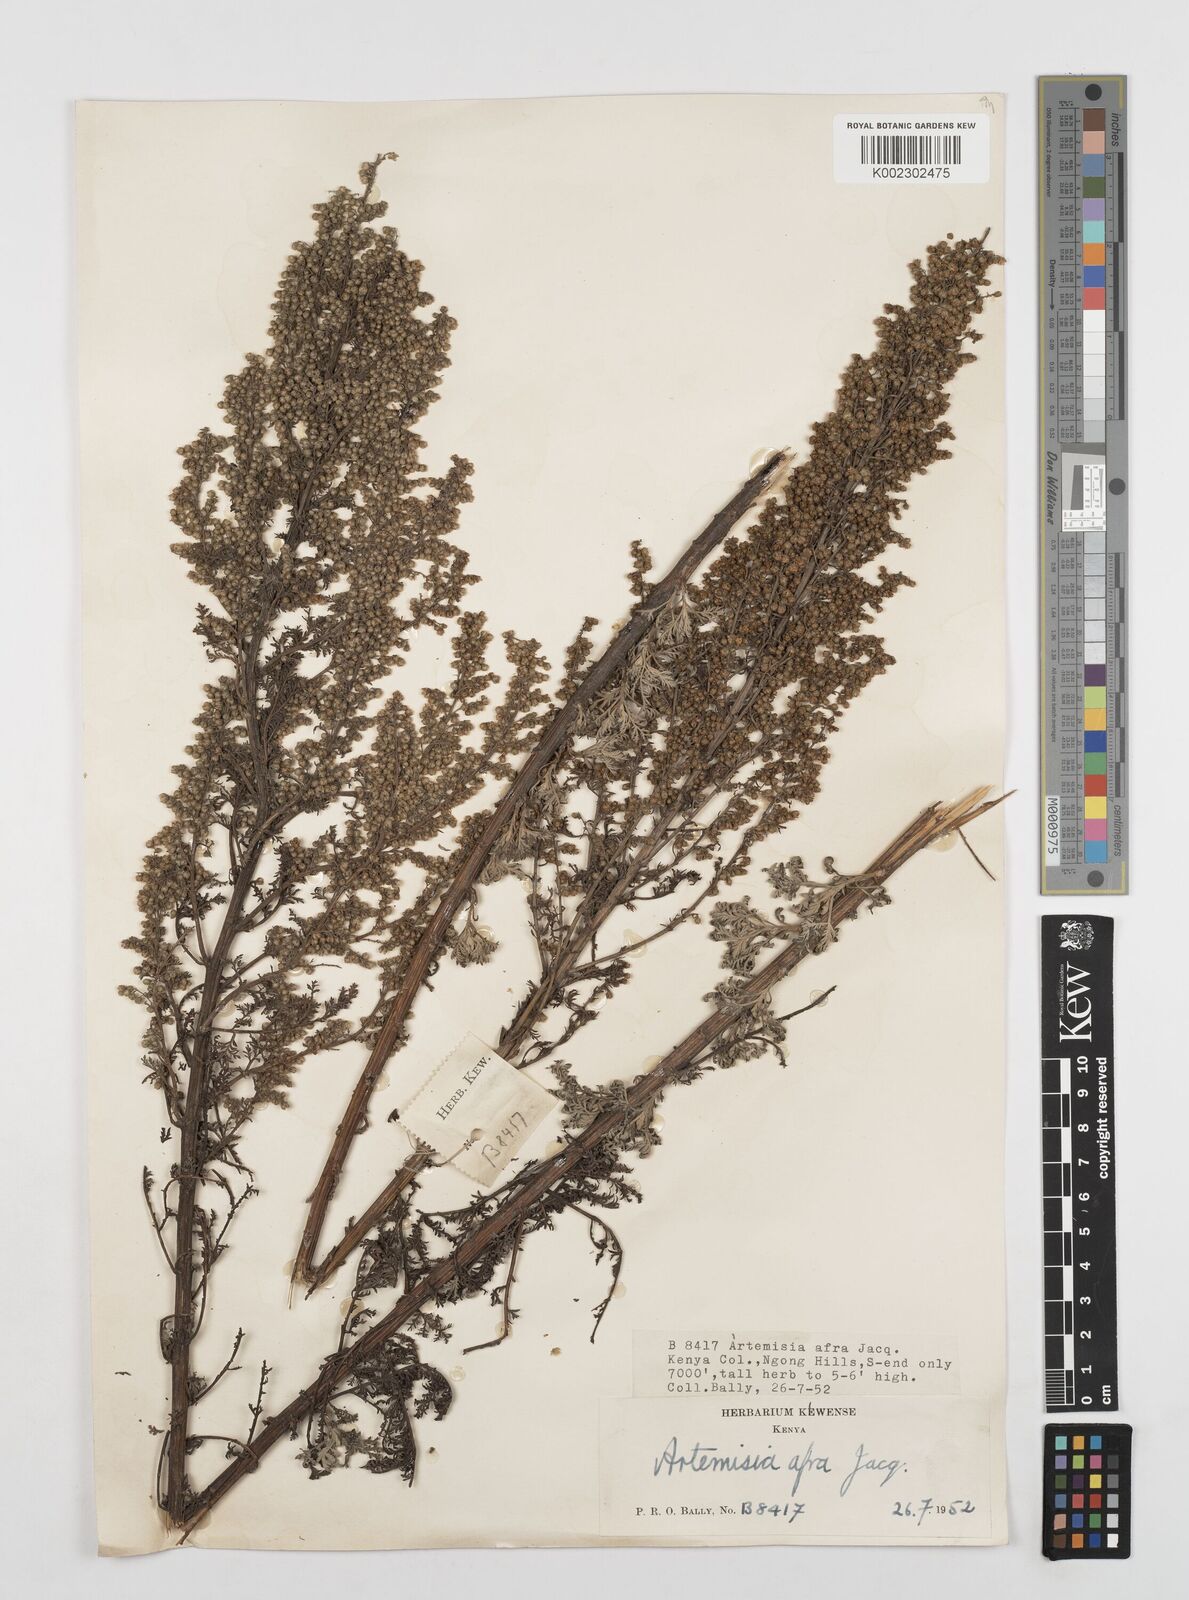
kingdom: Plantae
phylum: Tracheophyta
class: Magnoliopsida
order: Asterales
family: Asteraceae
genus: Artemisia
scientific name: Artemisia afra
